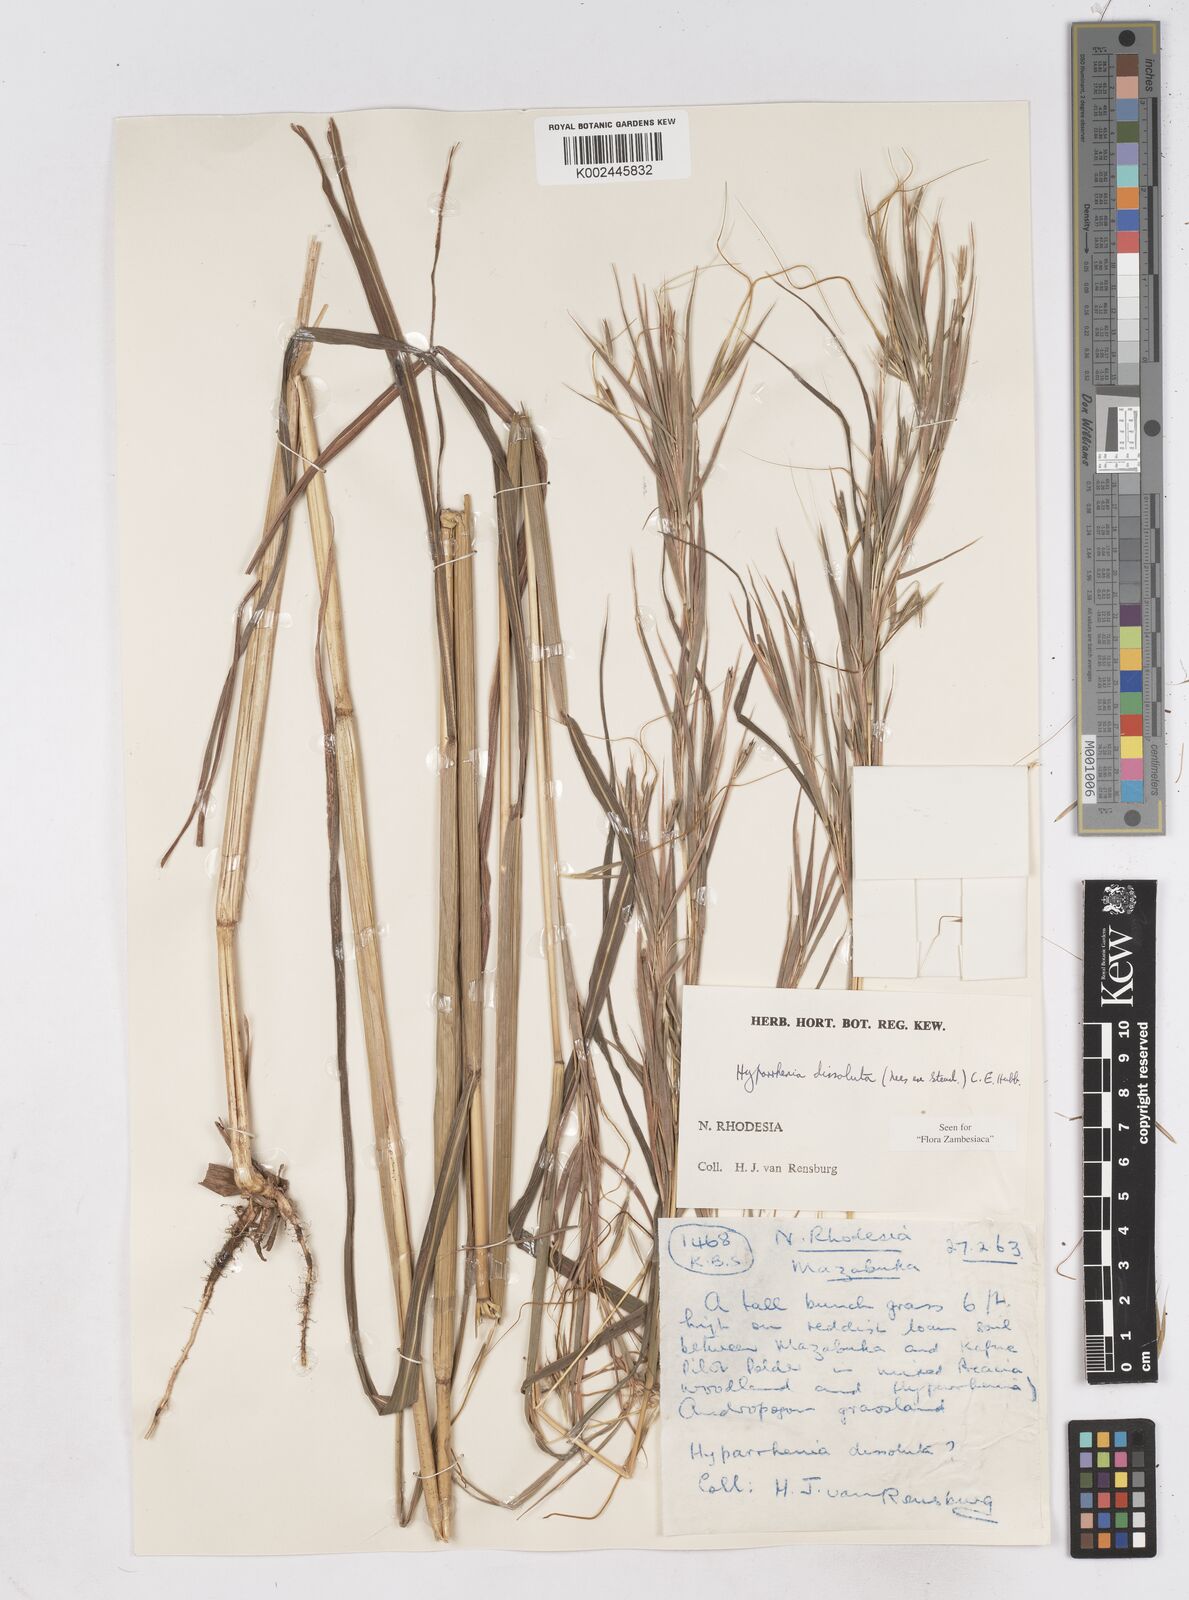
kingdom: Plantae
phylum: Tracheophyta
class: Liliopsida
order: Poales
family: Poaceae
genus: Hyperthelia
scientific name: Hyperthelia dissoluta
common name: Yellow thatching grass
